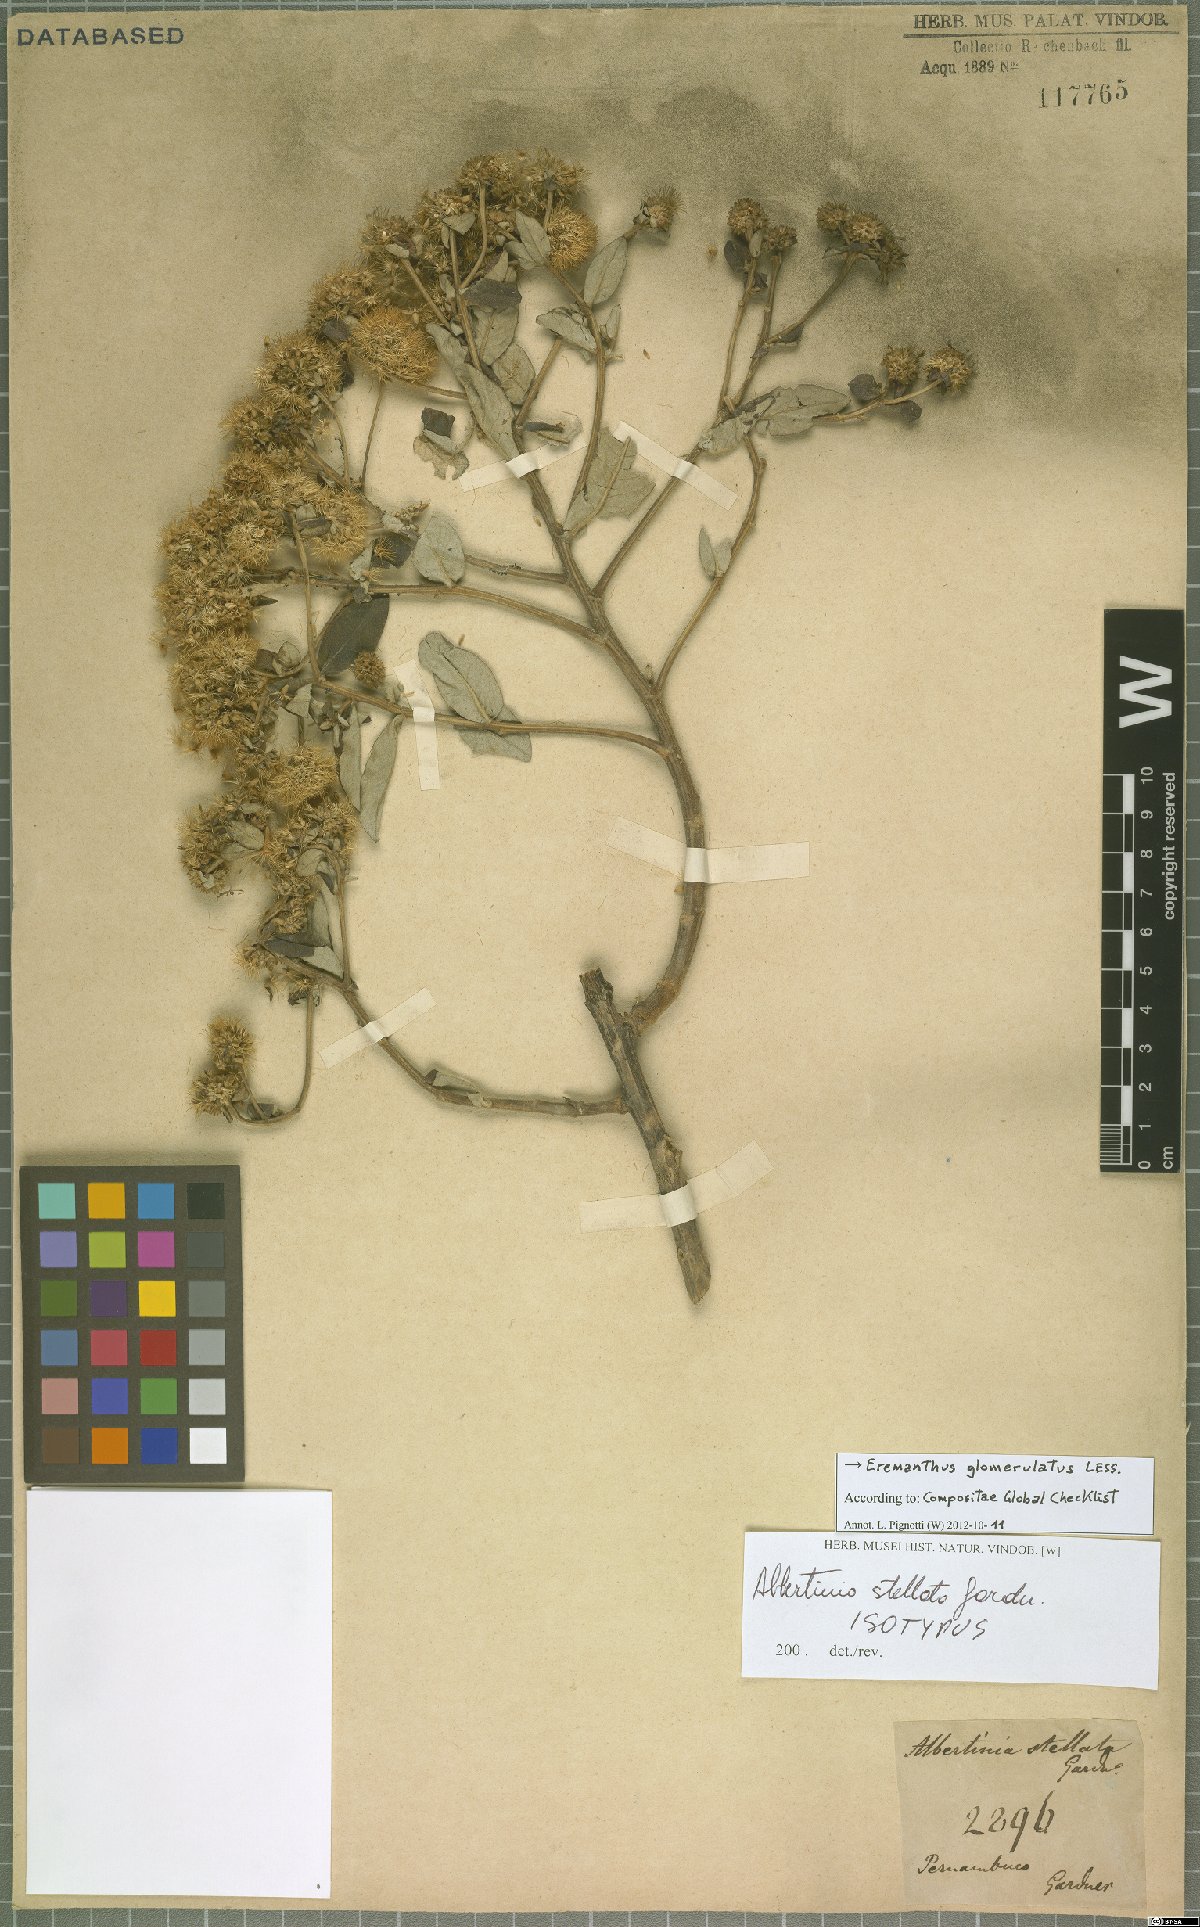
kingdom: Plantae
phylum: Tracheophyta
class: Magnoliopsida
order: Asterales
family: Asteraceae
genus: Eremanthus
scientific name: Eremanthus glomerulatus
